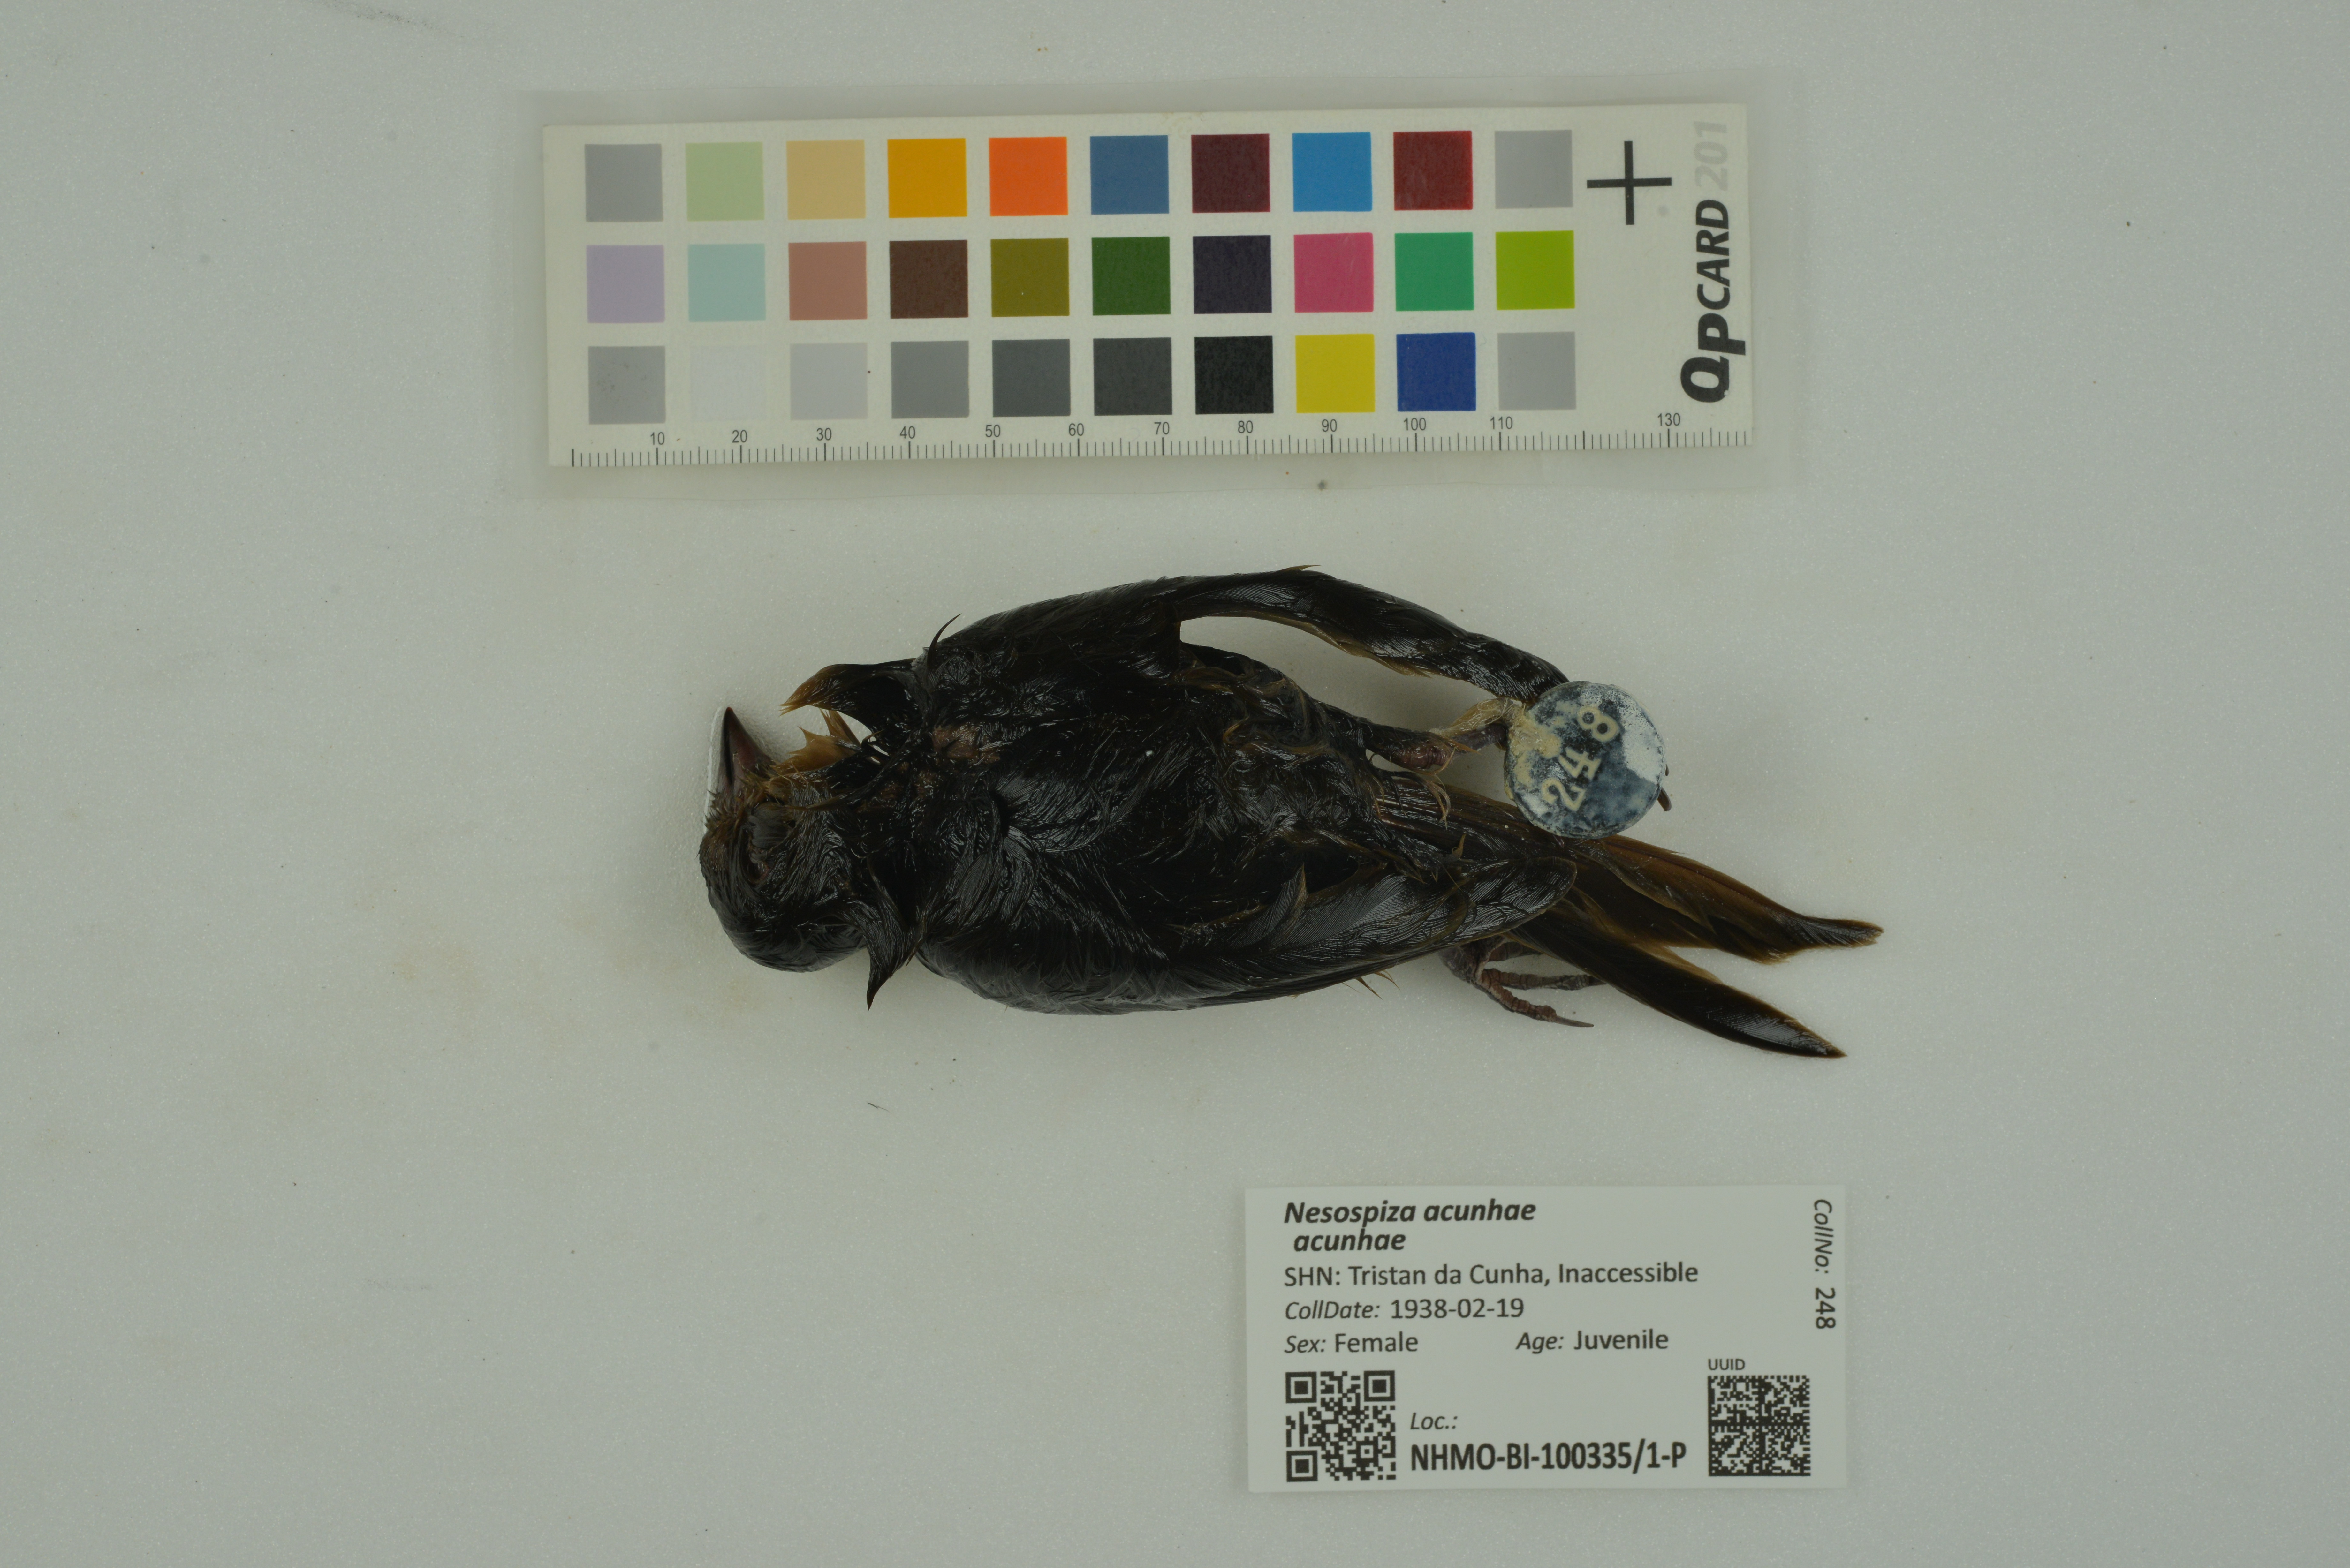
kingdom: Animalia
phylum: Chordata
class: Aves
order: Passeriformes
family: Thraupidae
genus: Nesospiza
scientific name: Nesospiza acunhae
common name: Inaccessible island finch
